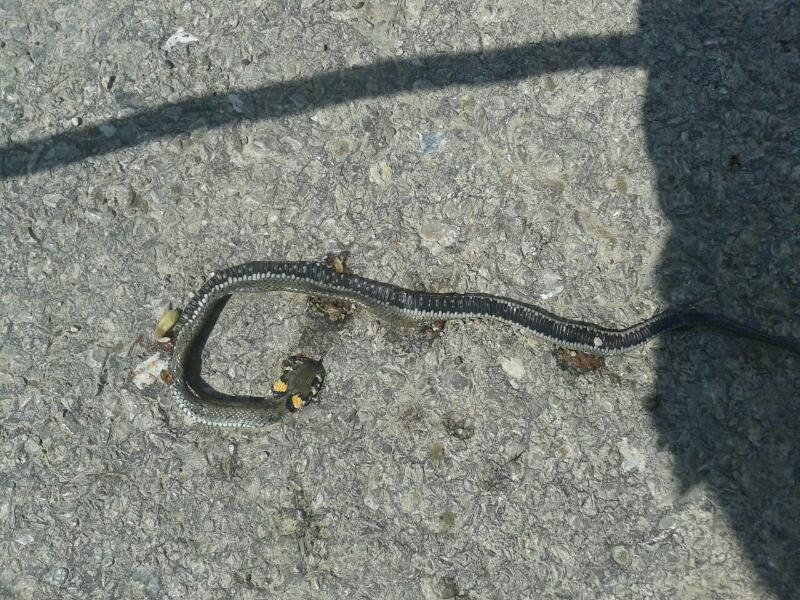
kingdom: Animalia
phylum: Chordata
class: Squamata
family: Colubridae
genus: Natrix
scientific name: Natrix natrix
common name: Grass snake
